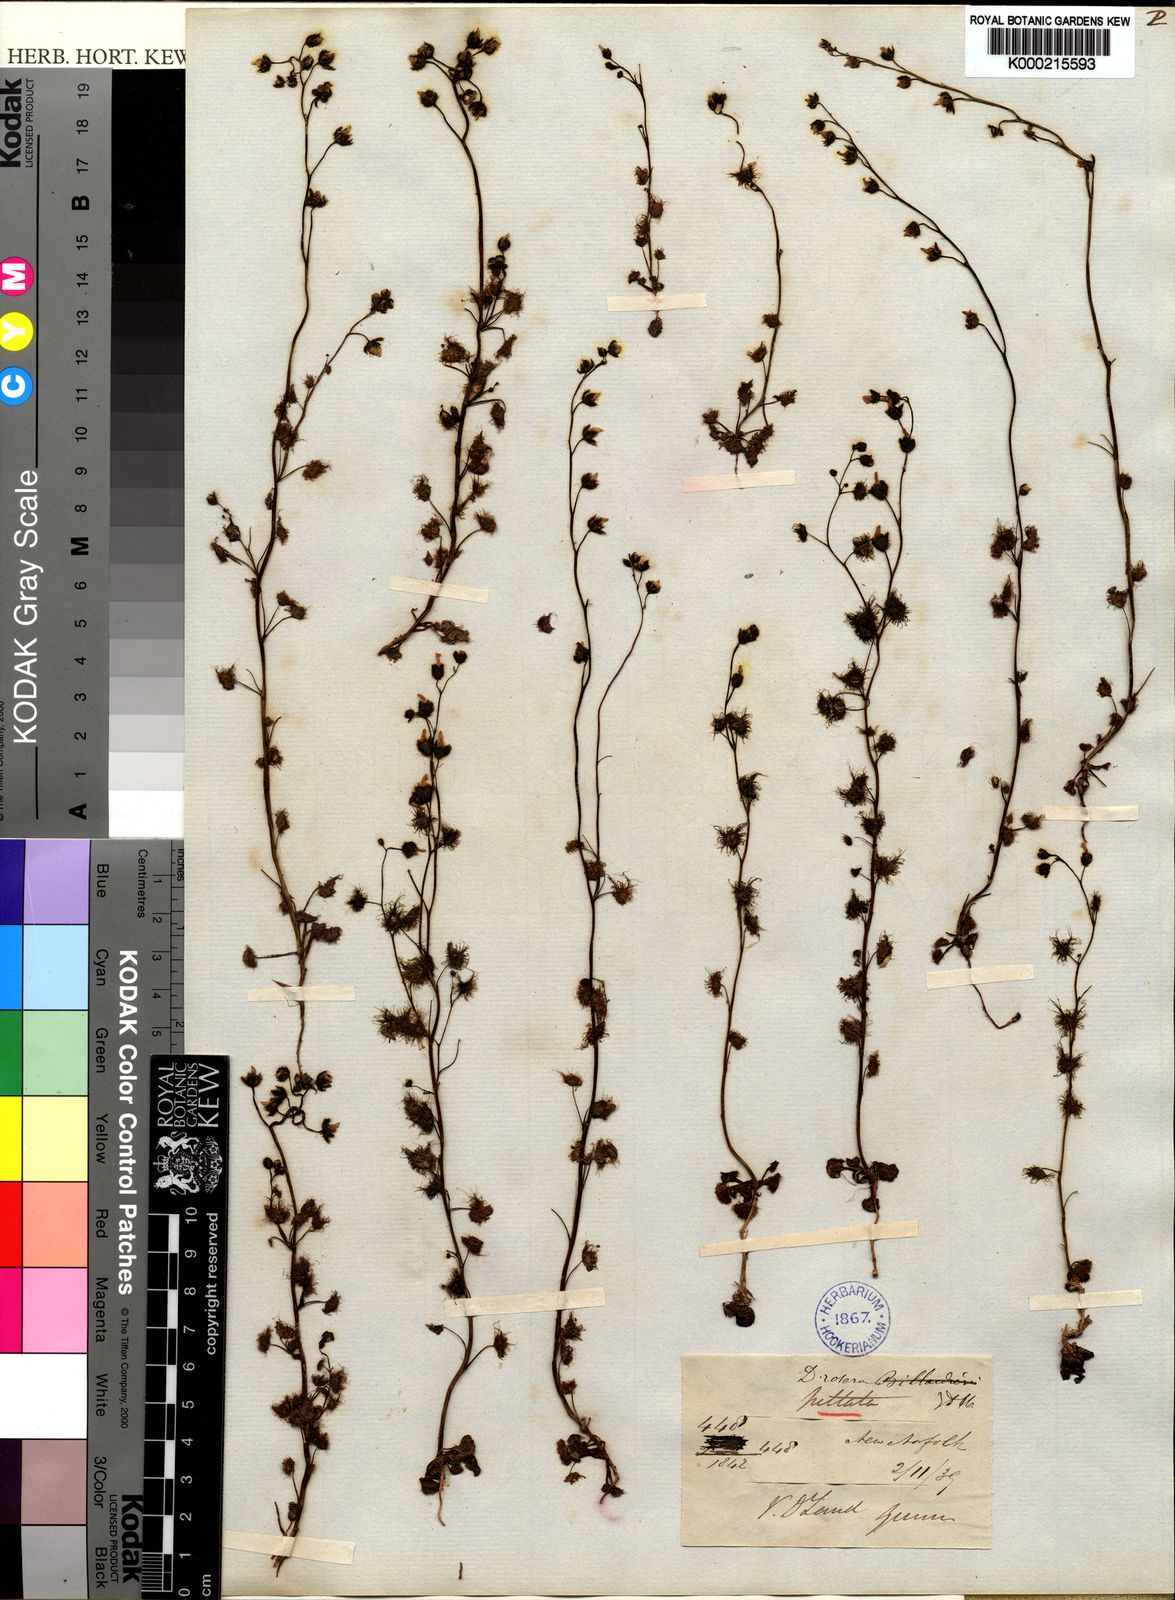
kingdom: Plantae
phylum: Tracheophyta
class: Magnoliopsida
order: Caryophyllales
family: Droseraceae
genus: Drosera
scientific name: Drosera peltata
